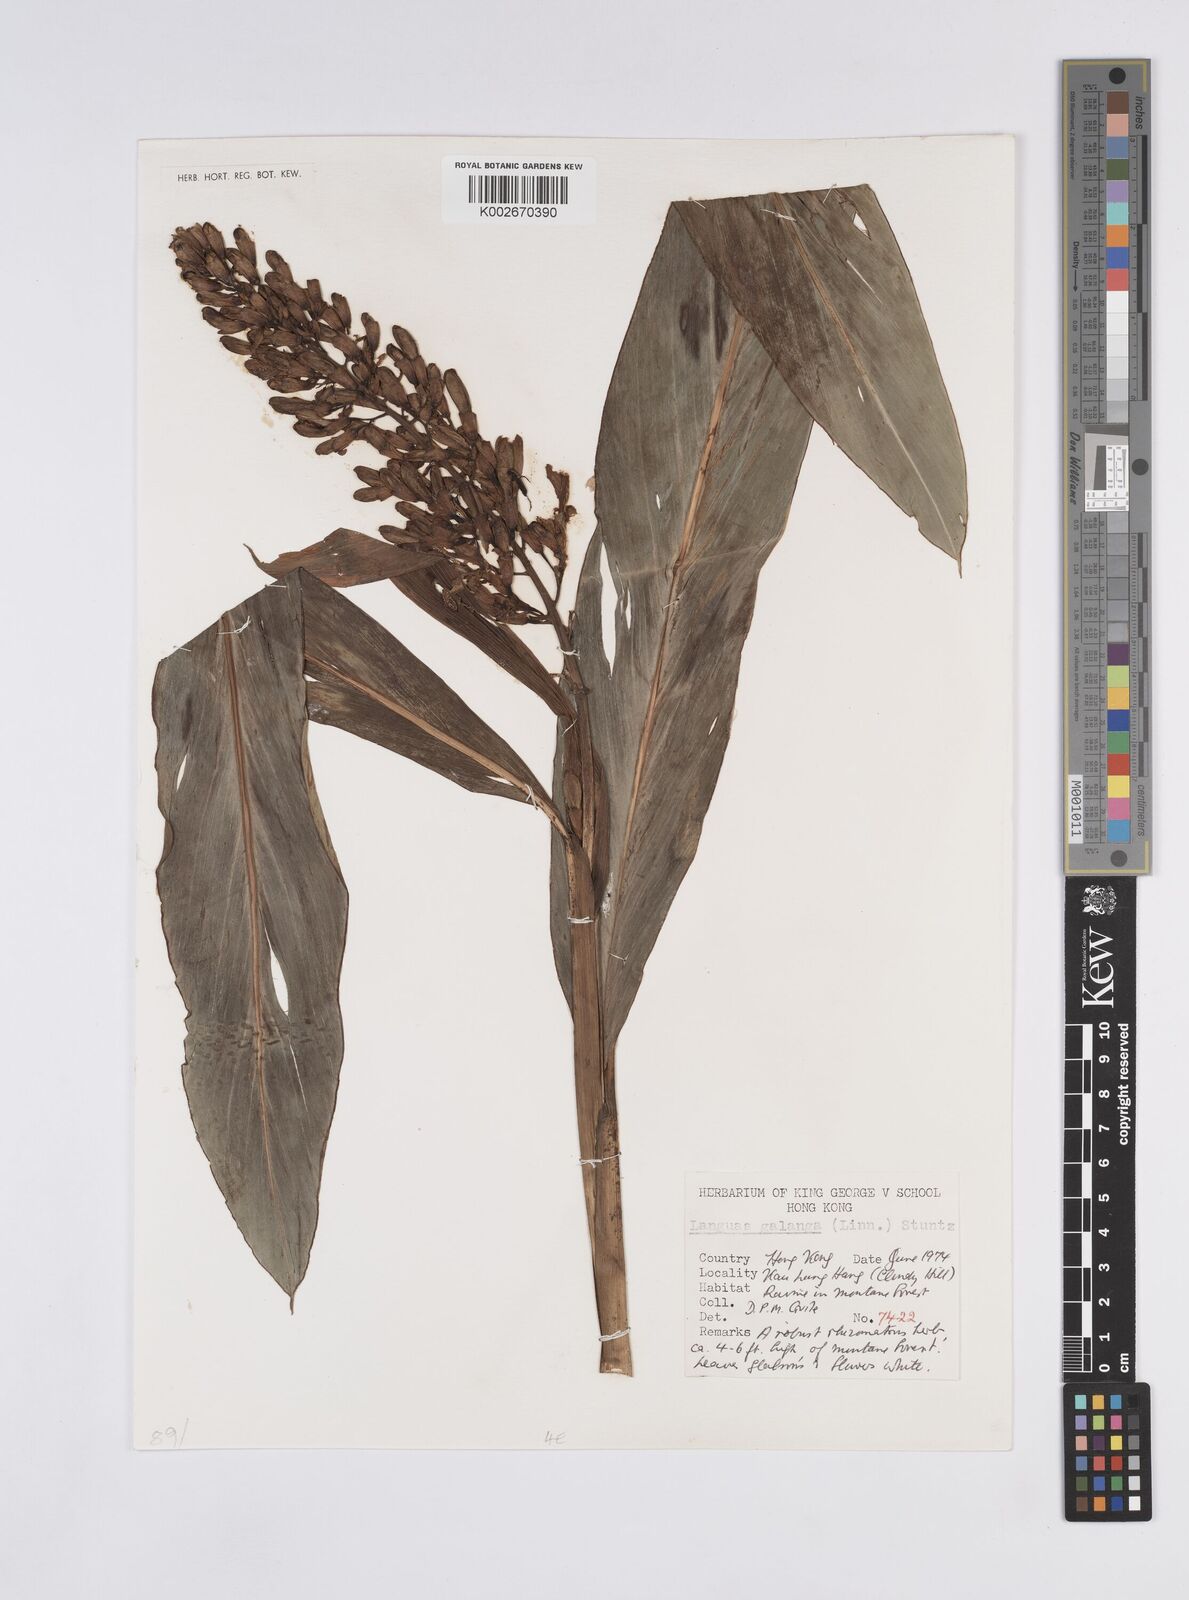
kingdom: Plantae
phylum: Tracheophyta
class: Liliopsida
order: Zingiberales
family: Zingiberaceae
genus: Alpinia
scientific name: Alpinia galanga
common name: Siamese-ginger
